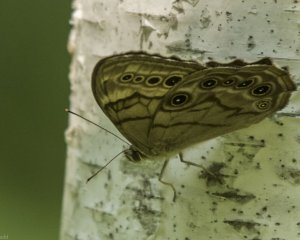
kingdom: Animalia
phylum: Arthropoda
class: Insecta
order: Lepidoptera
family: Nymphalidae
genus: Lethe
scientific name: Lethe anthedon
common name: Northern Pearly-Eye
